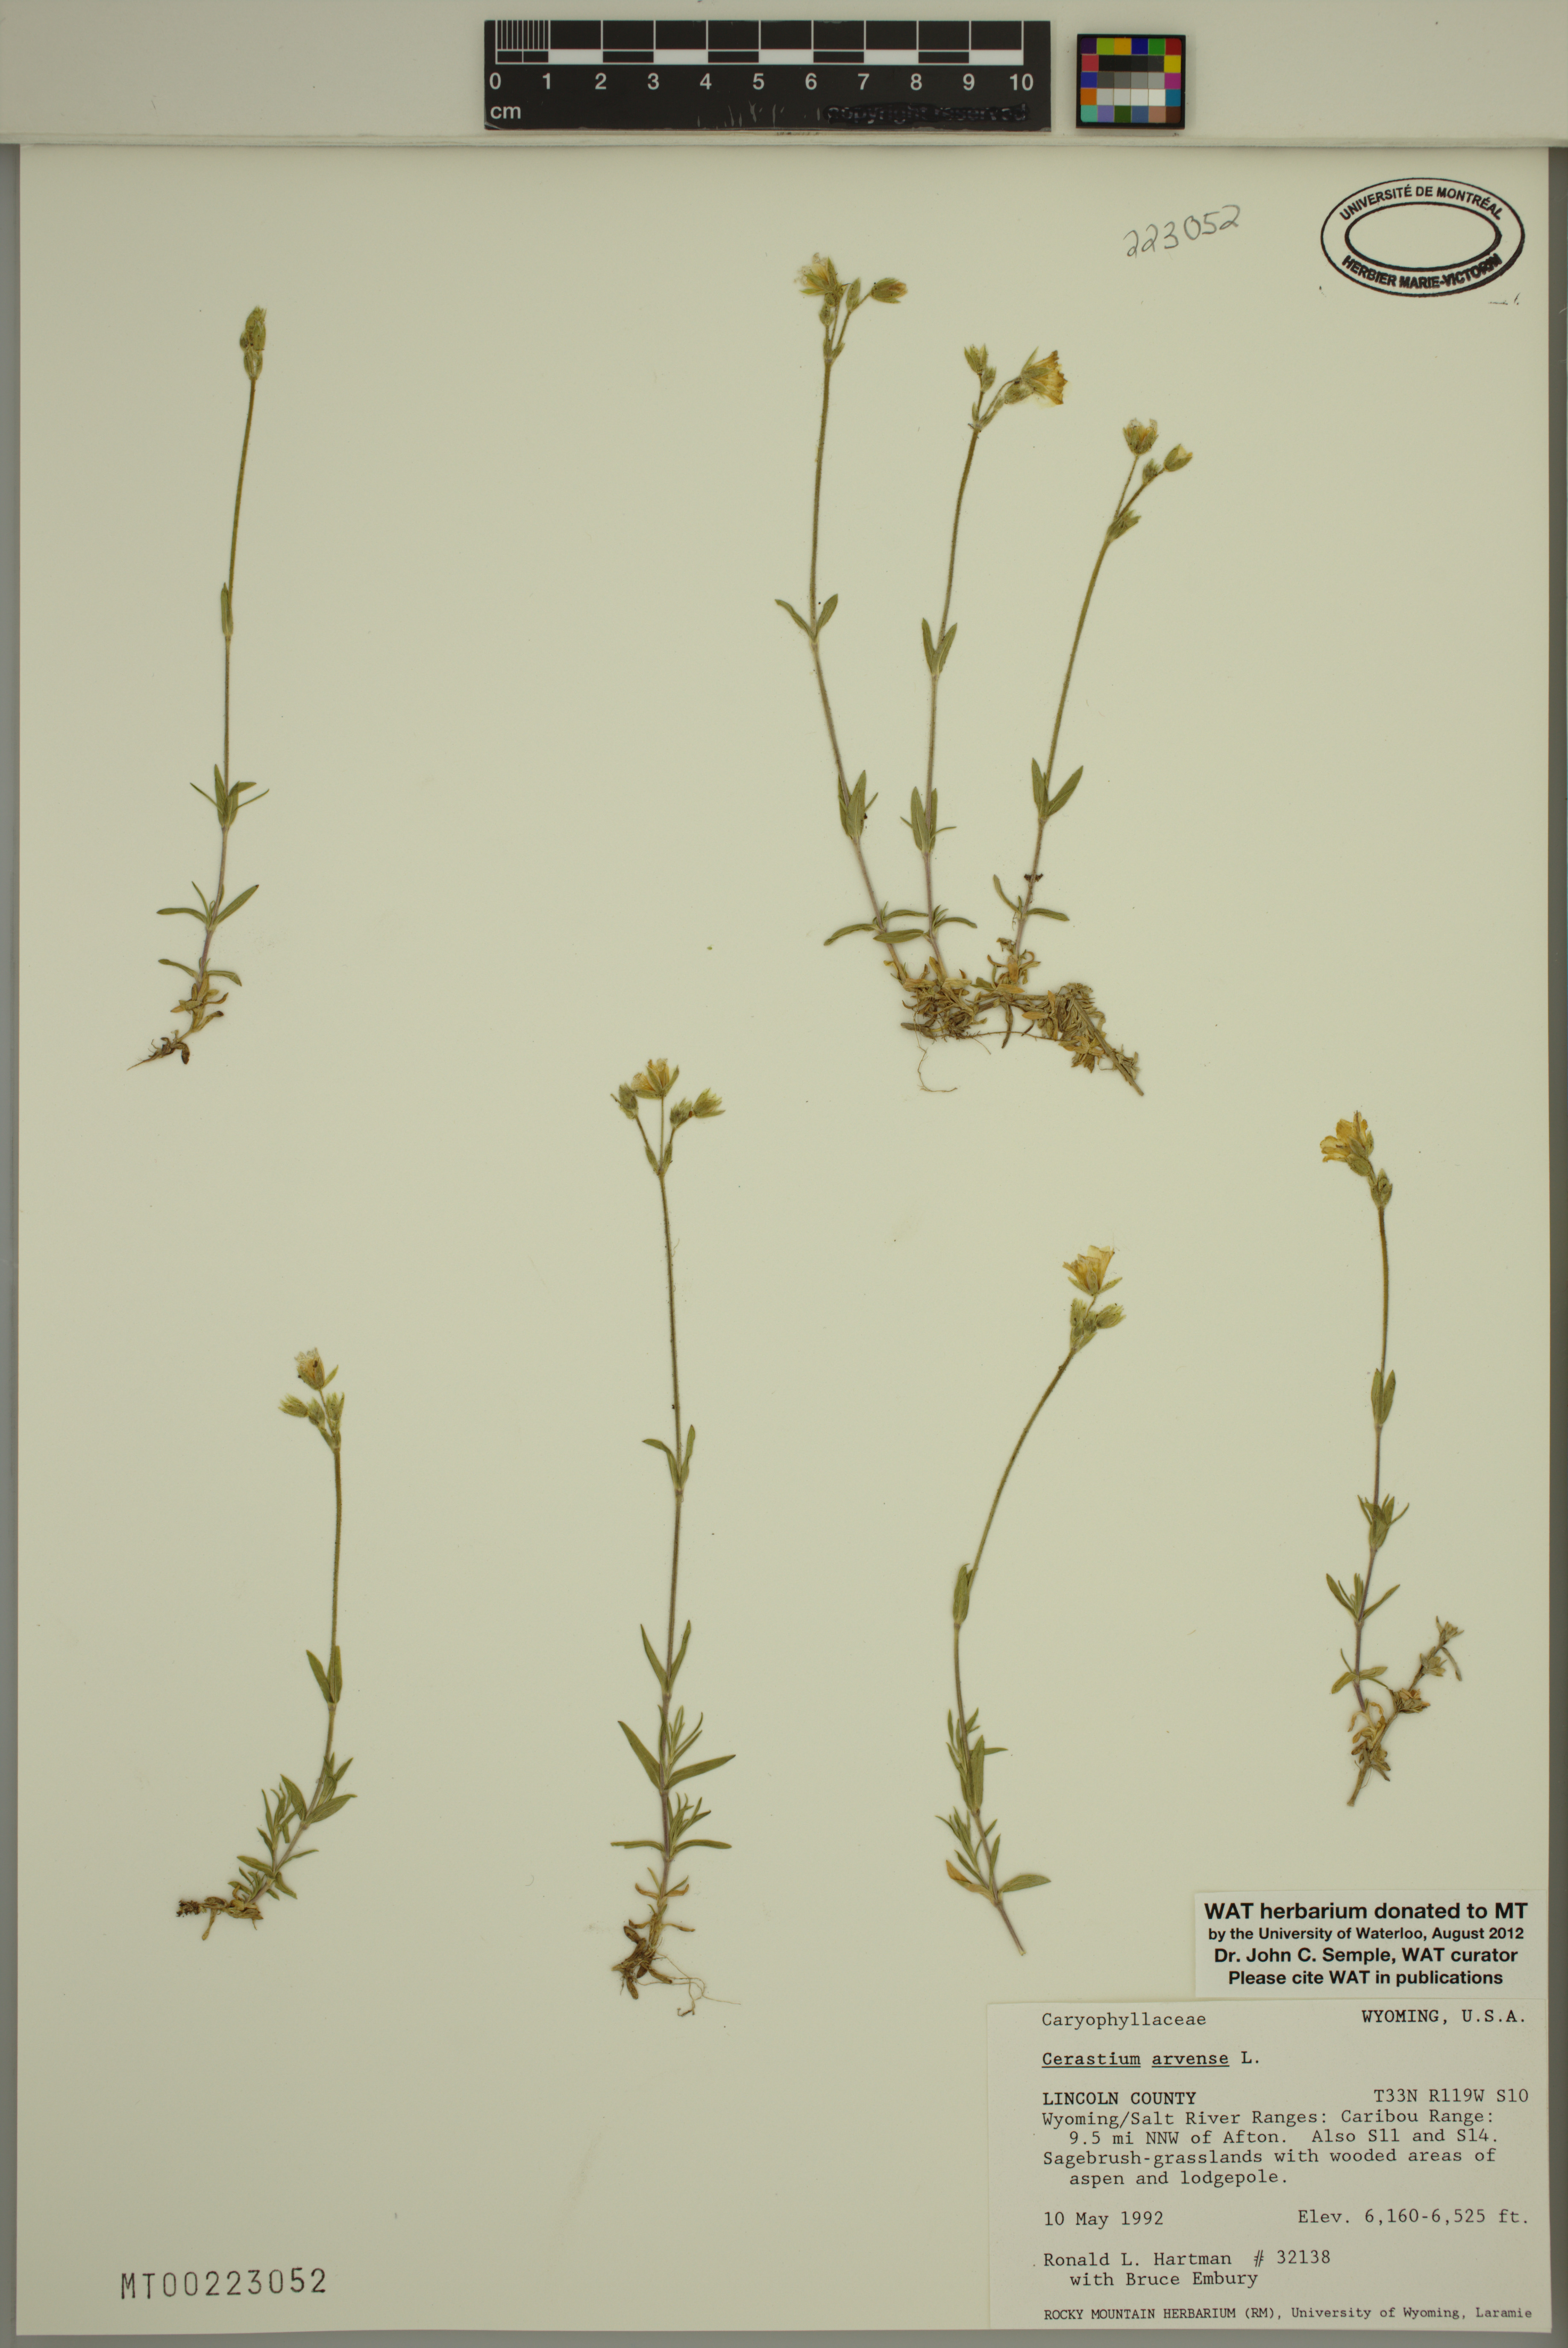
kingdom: Plantae
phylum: Tracheophyta
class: Magnoliopsida
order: Caryophyllales
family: Caryophyllaceae
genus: Cerastium
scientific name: Cerastium arvense
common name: Field mouse-ear
